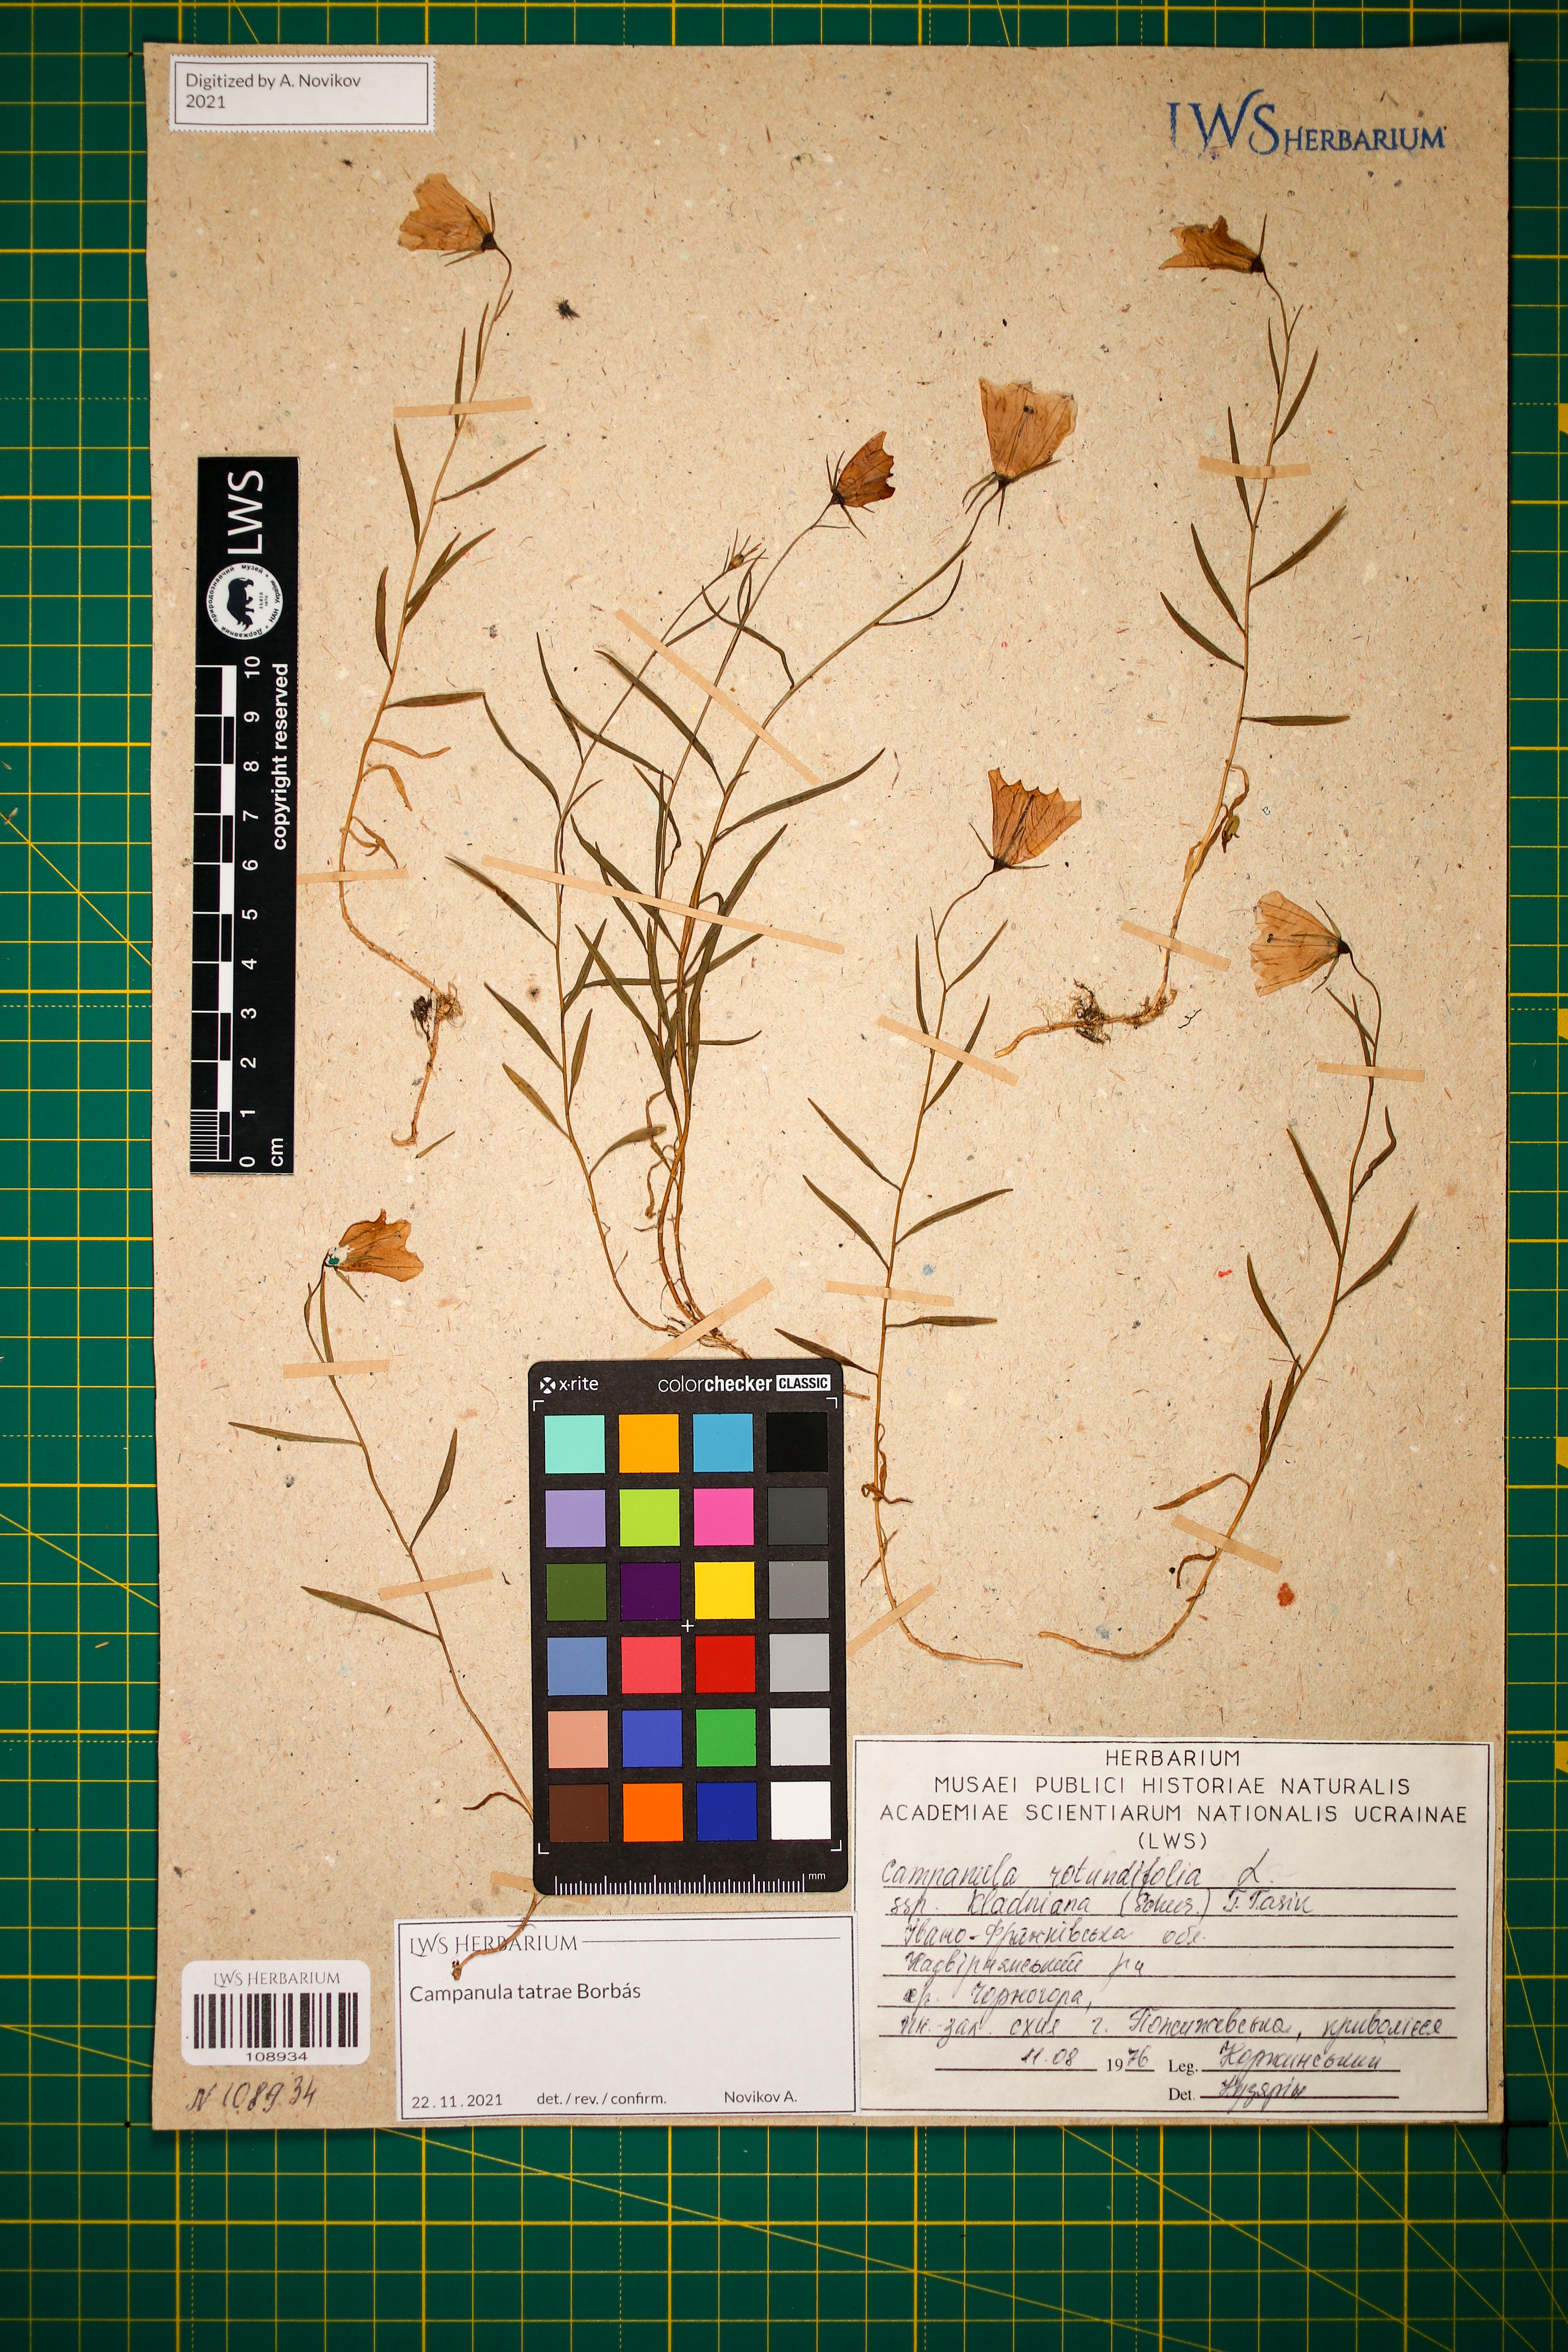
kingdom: Plantae
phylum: Tracheophyta
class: Magnoliopsida
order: Asterales
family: Campanulaceae
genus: Campanula
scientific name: Campanula kladniana
